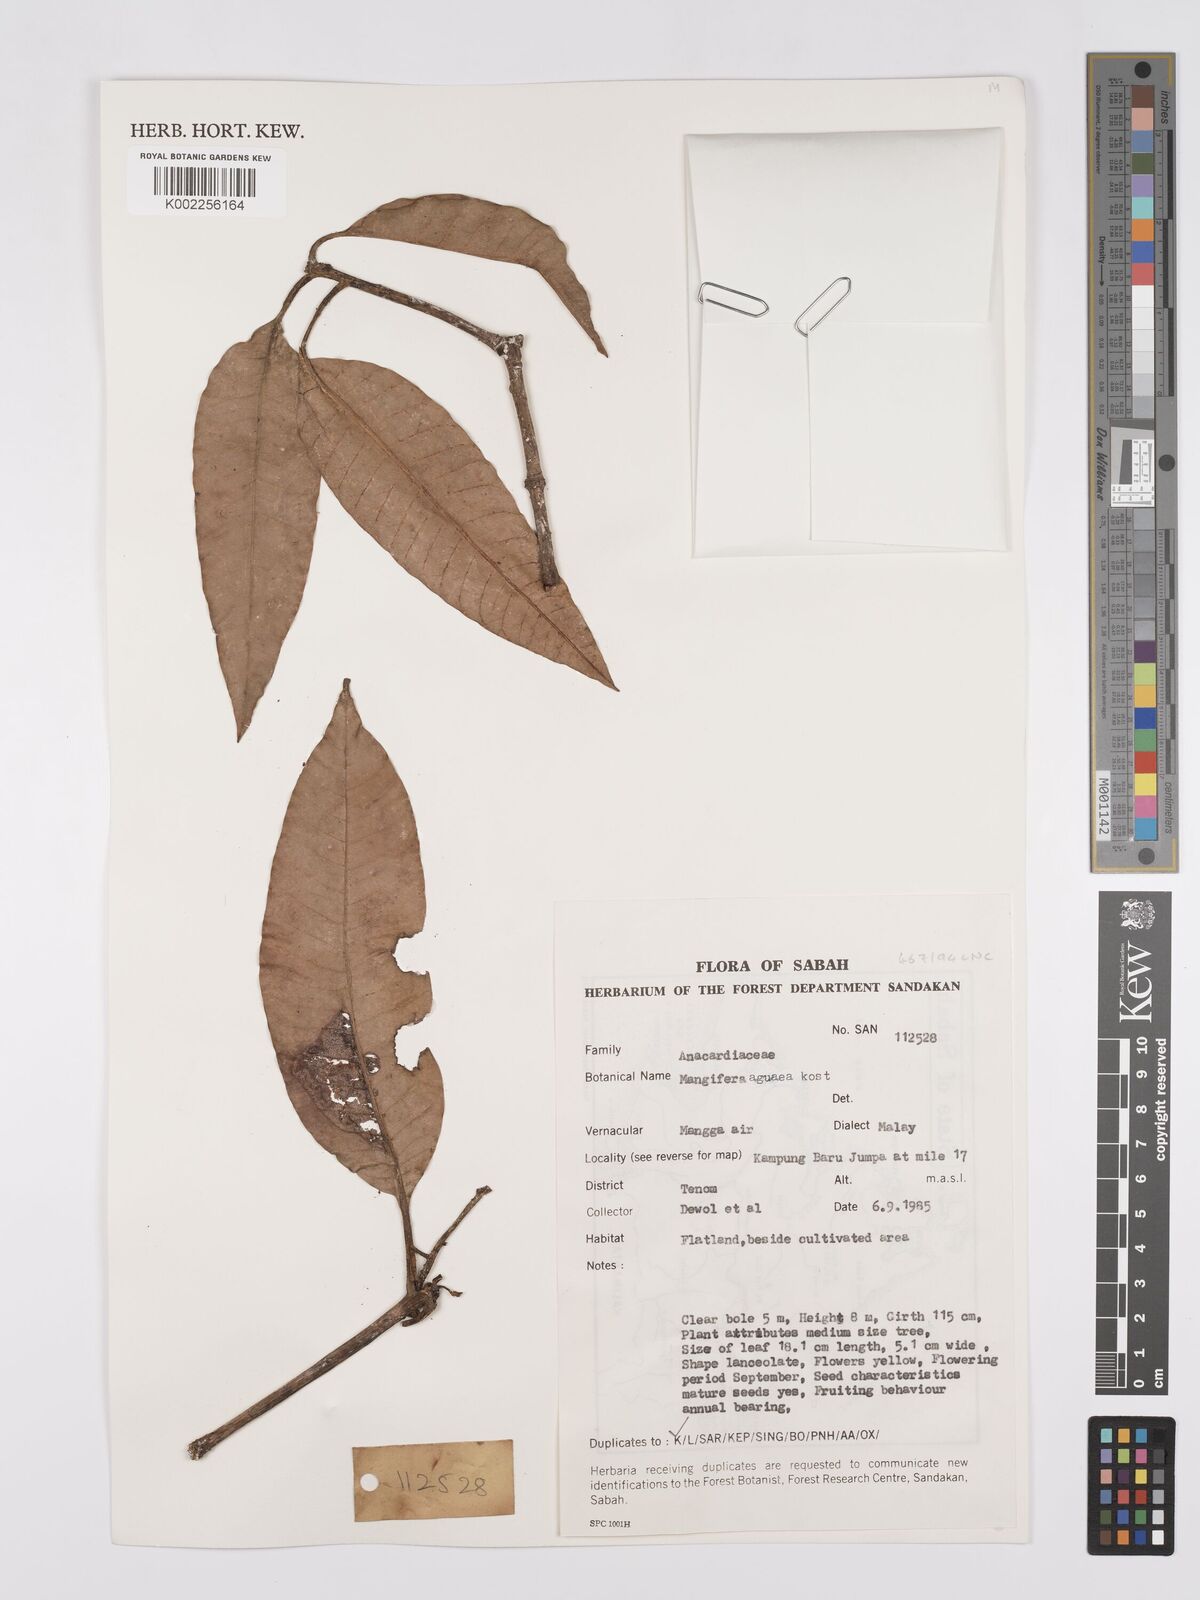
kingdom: Plantae
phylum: Tracheophyta
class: Magnoliopsida
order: Sapindales
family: Anacardiaceae
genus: Mangifera
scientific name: Mangifera laurina
